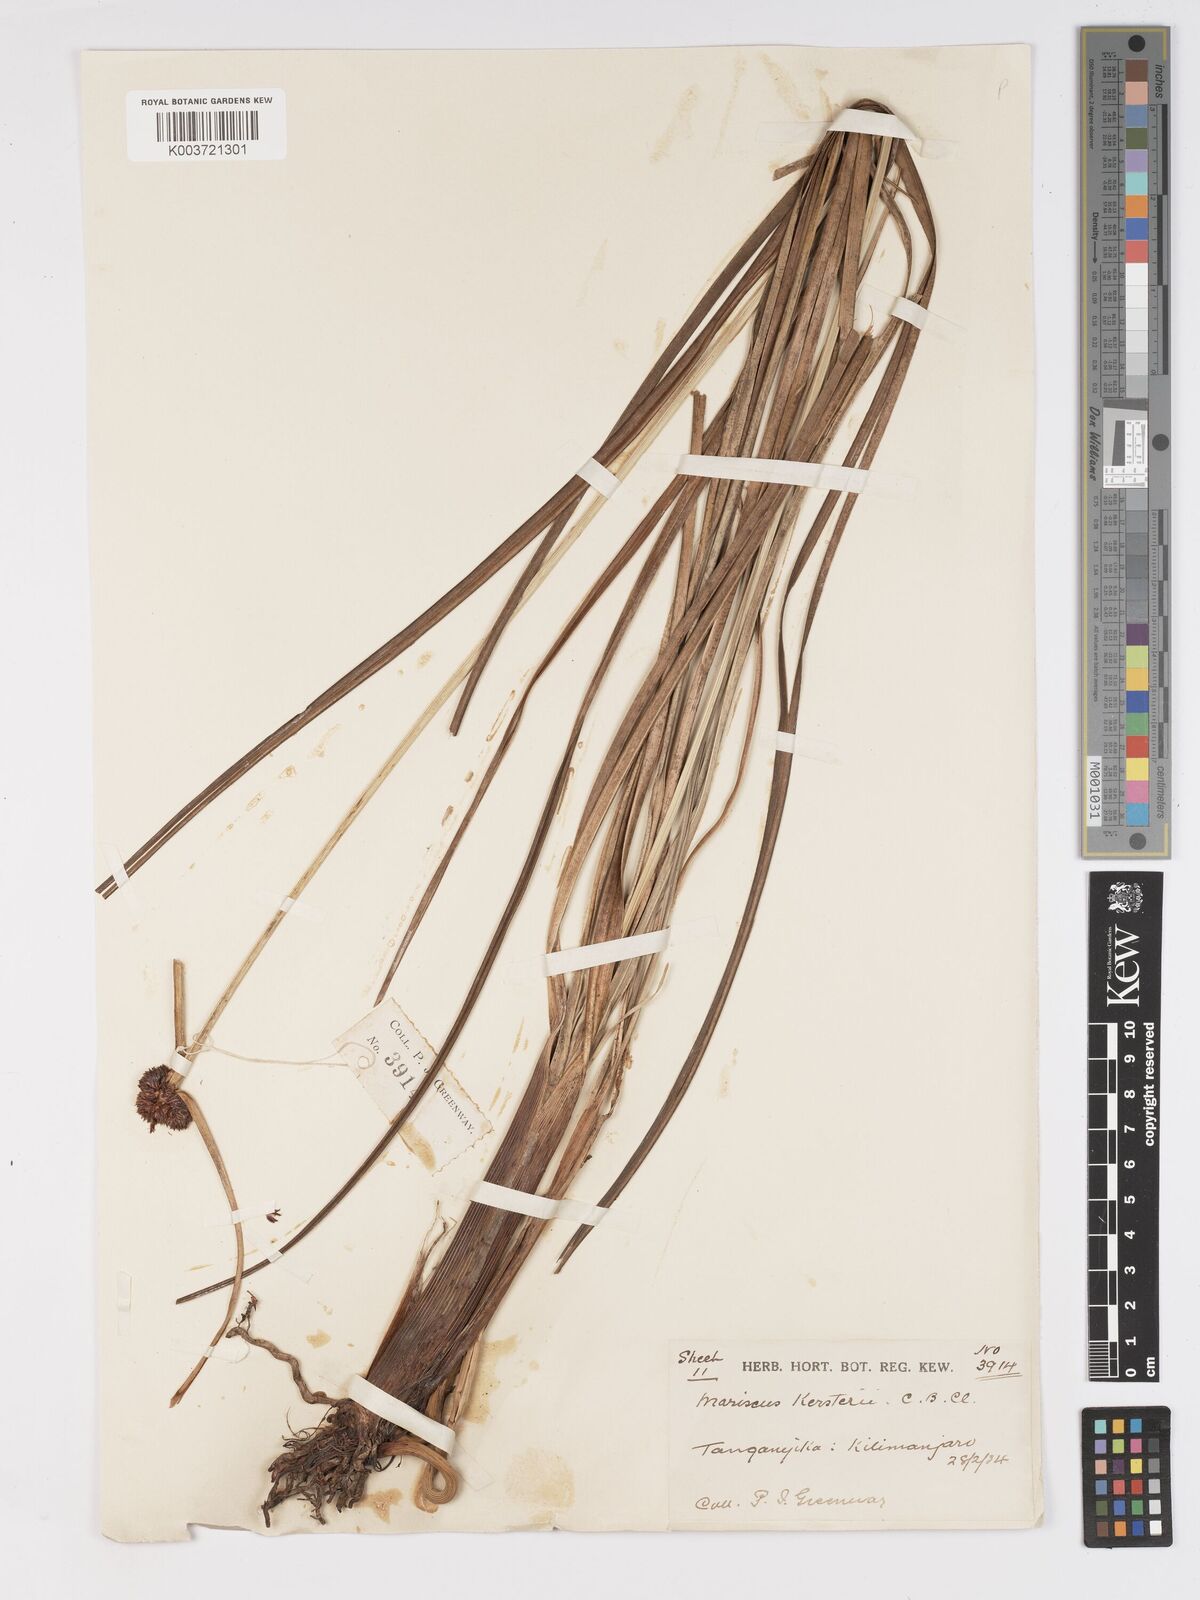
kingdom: Plantae
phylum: Tracheophyta
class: Liliopsida
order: Poales
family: Cyperaceae
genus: Cyperus
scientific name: Cyperus kerstenii
